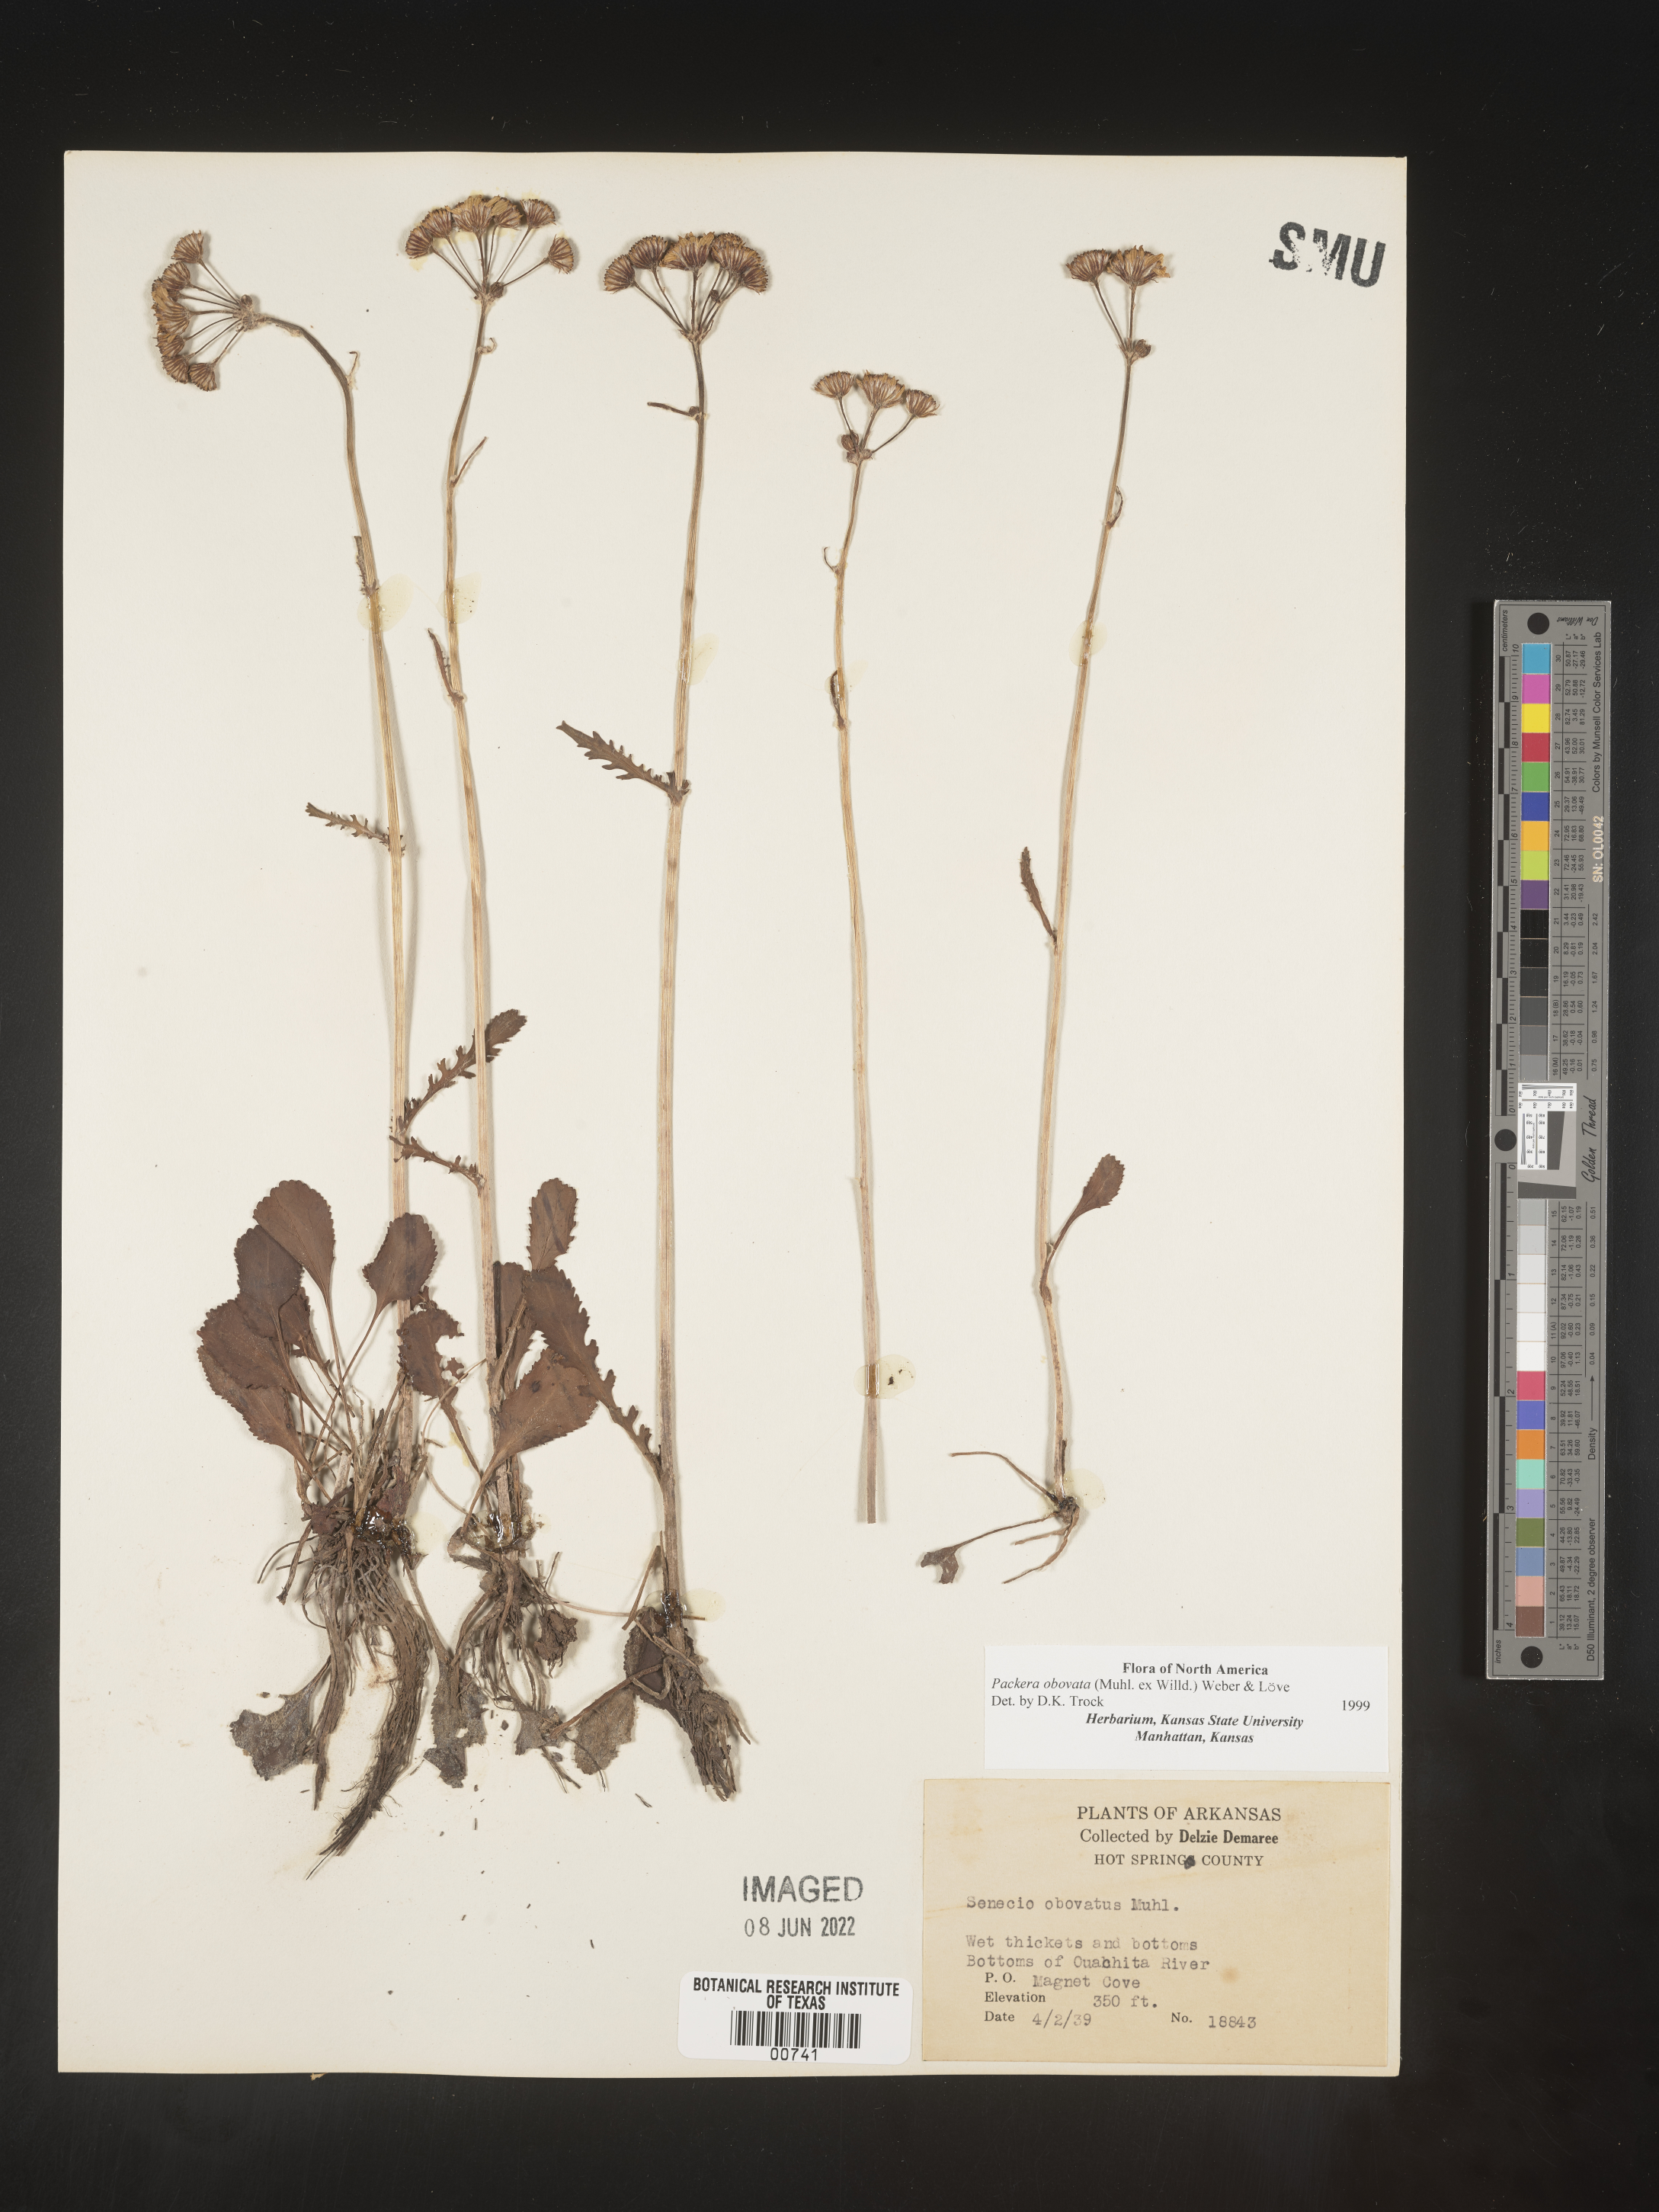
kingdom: Plantae
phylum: Tracheophyta
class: Magnoliopsida
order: Asterales
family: Asteraceae
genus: Packera
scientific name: Packera obovata
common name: Round-leaf ragwort
